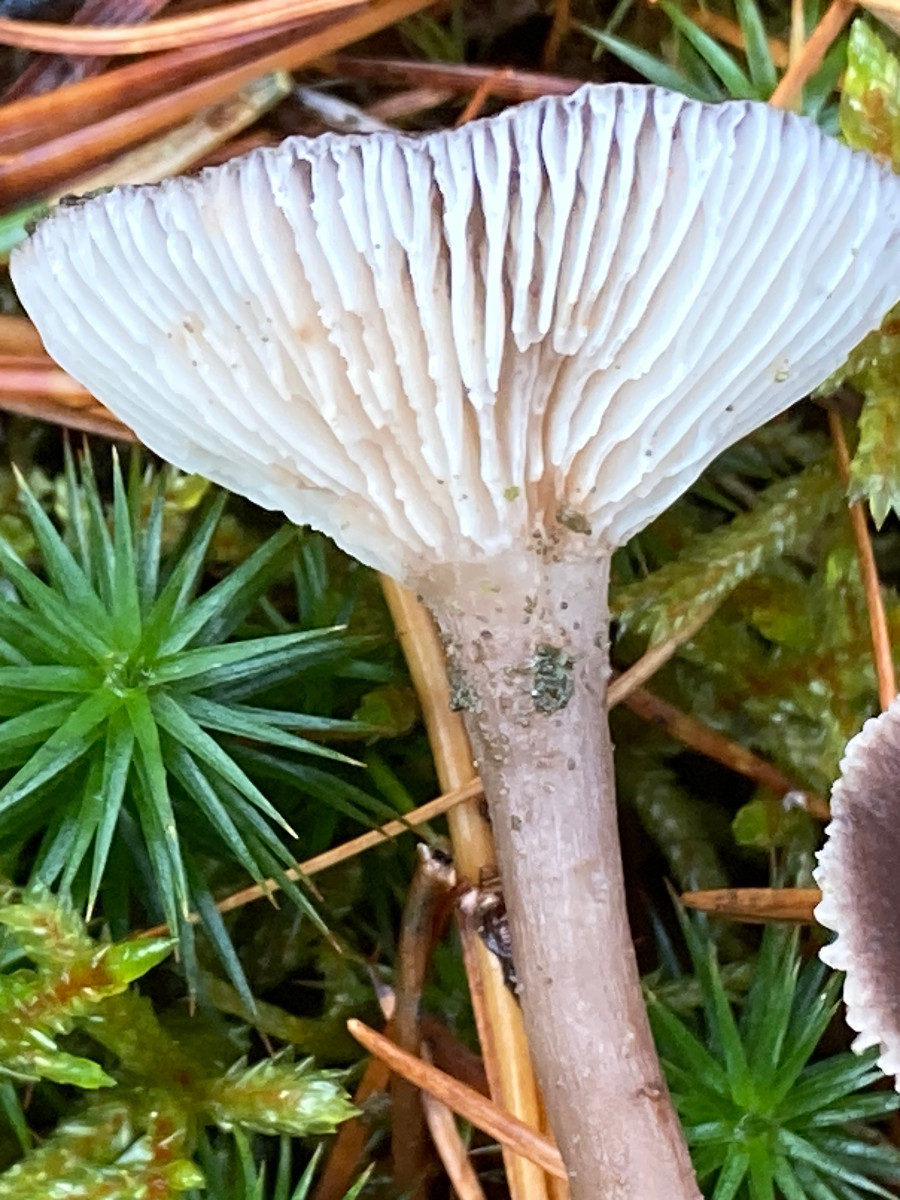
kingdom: Fungi
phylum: Basidiomycota
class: Agaricomycetes
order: Agaricales
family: Hygrophoraceae
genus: Cantharellula
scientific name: Cantharellula umbonata
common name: rødmende gaffelblad
